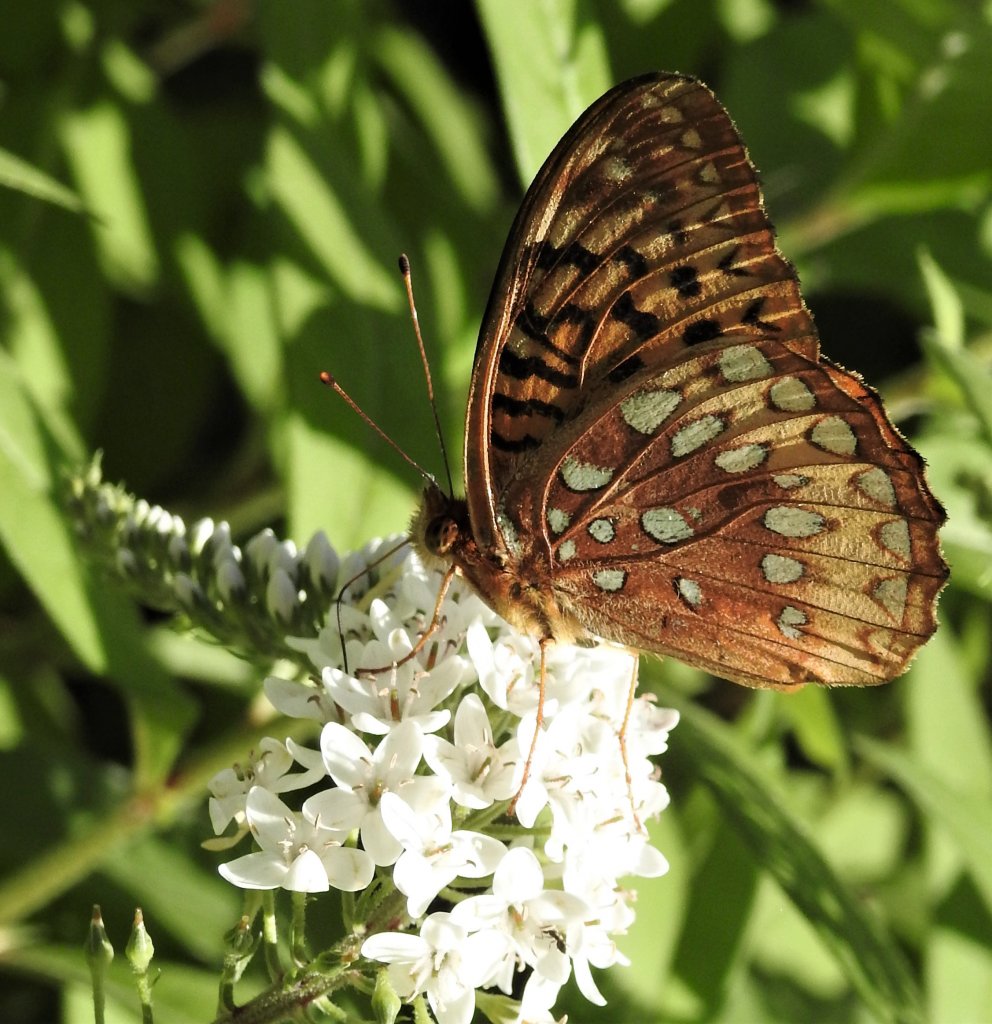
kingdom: Animalia
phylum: Arthropoda
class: Insecta
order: Lepidoptera
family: Nymphalidae
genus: Speyeria
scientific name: Speyeria cybele
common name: Great Spangled Fritillary
